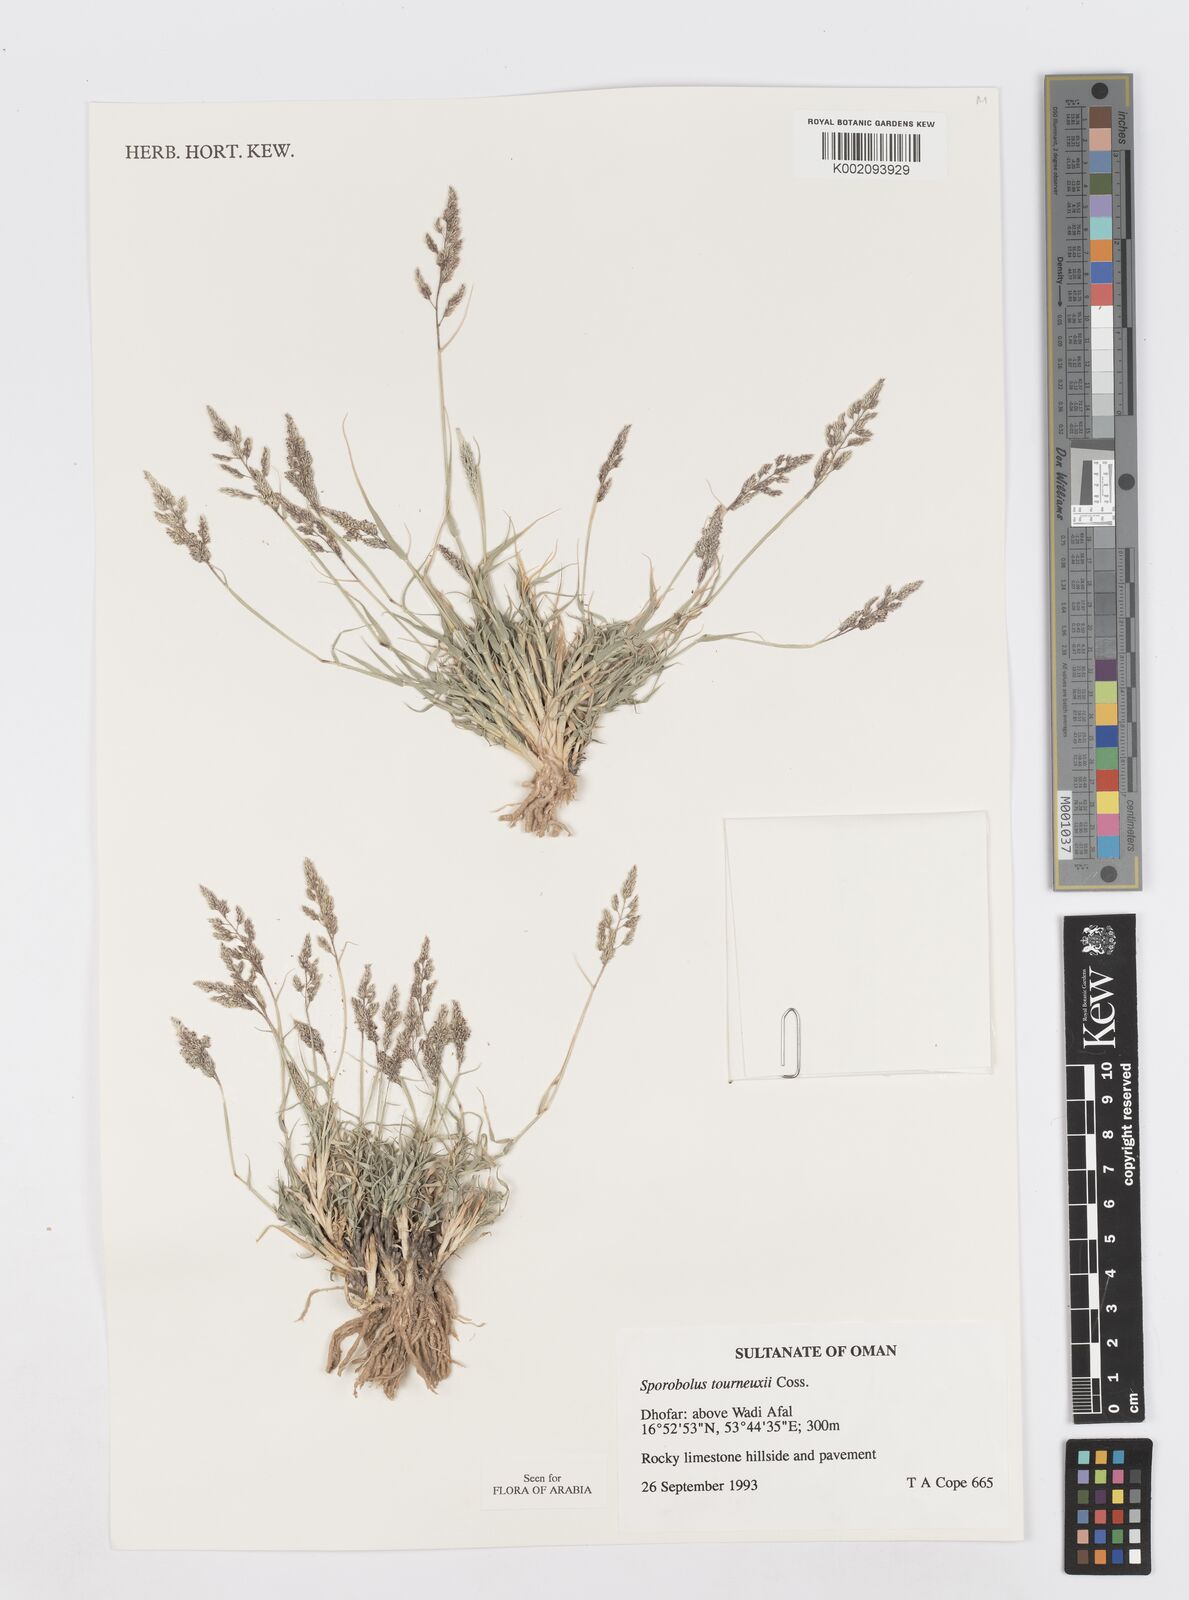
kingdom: Plantae
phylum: Tracheophyta
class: Liliopsida
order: Poales
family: Poaceae
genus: Sporobolus
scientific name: Sporobolus tourneuxii
